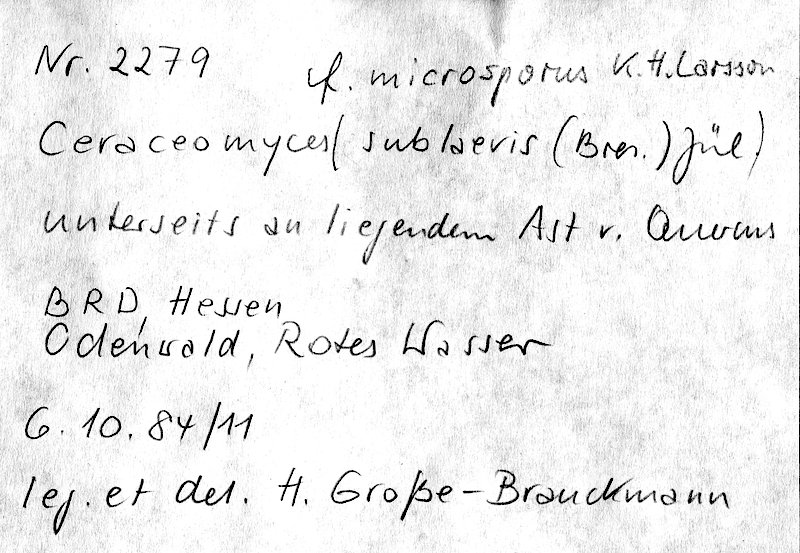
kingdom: Plantae
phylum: Tracheophyta
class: Magnoliopsida
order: Fagales
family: Fagaceae
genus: Quercus
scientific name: Quercus
